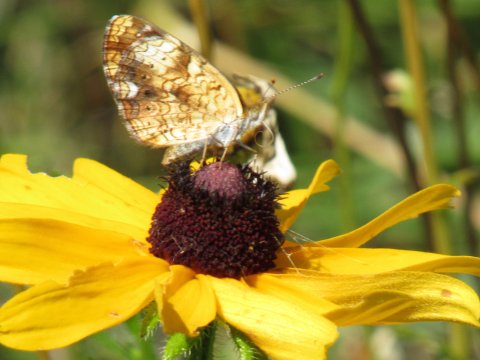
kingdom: Animalia
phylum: Arthropoda
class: Insecta
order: Lepidoptera
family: Nymphalidae
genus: Phyciodes
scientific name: Phyciodes tharos
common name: Pearl Crescent
